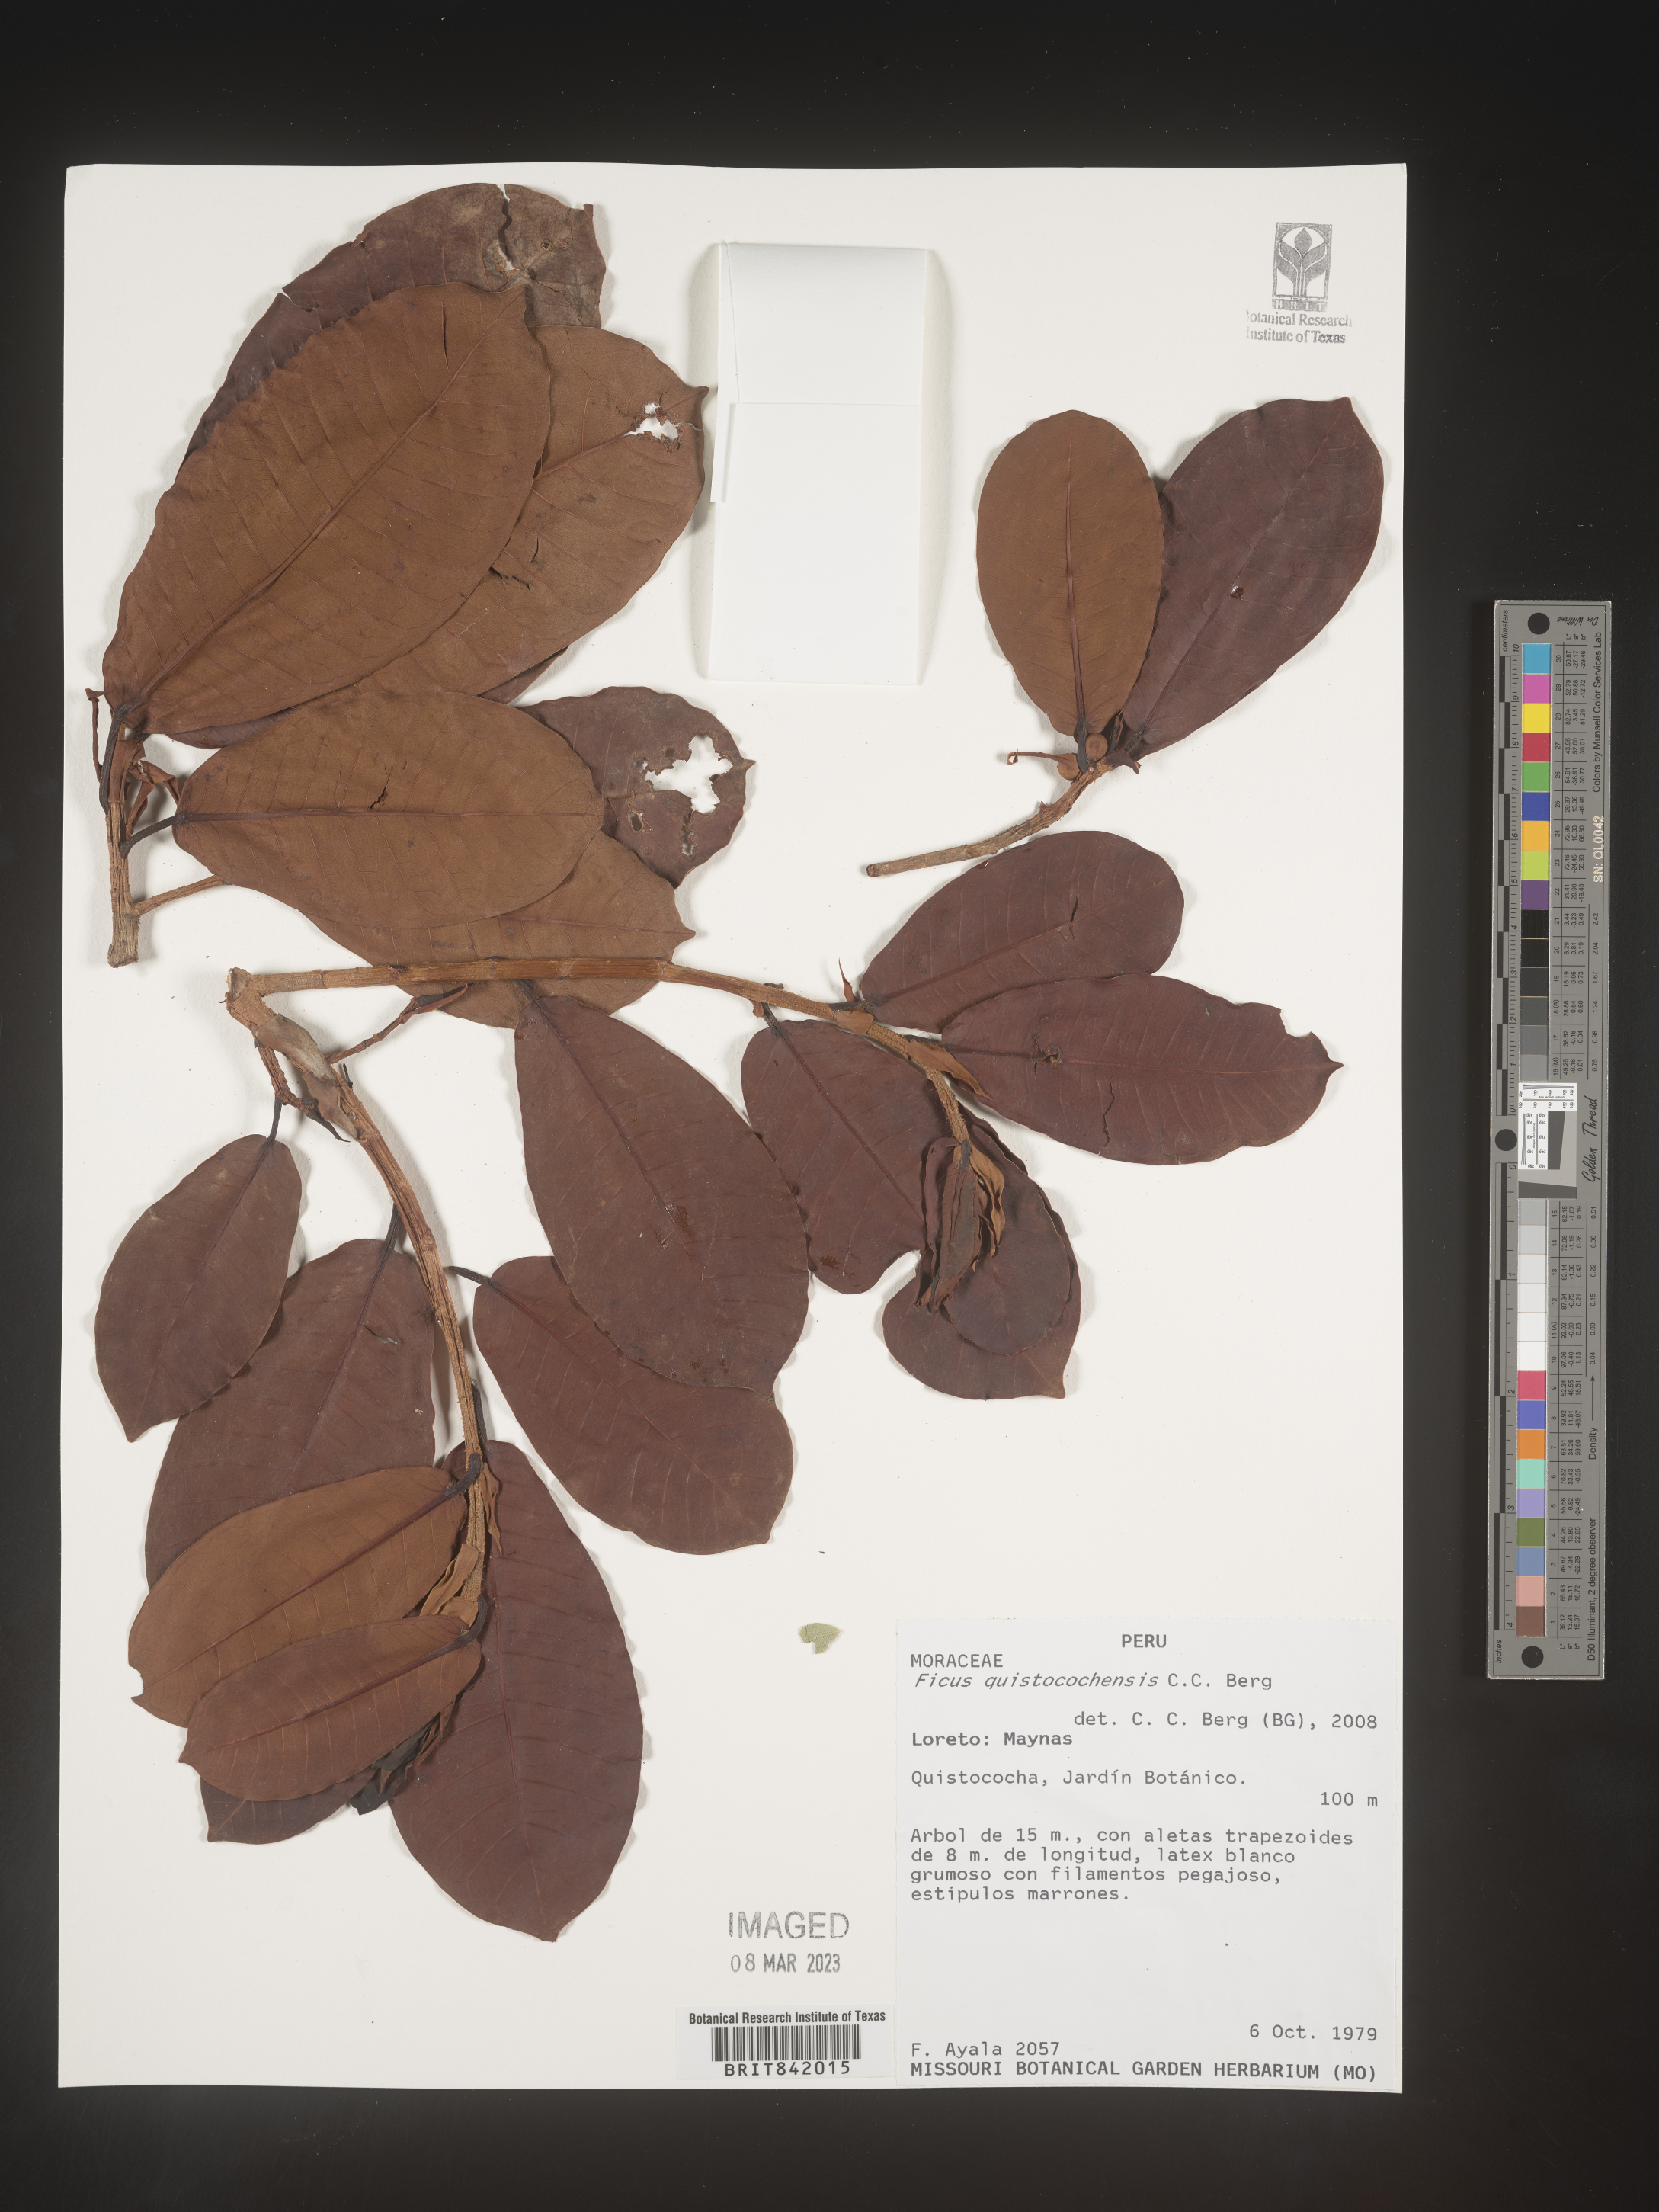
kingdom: Plantae
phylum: Tracheophyta
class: Magnoliopsida
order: Rosales
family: Moraceae
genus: Ficus
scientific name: Ficus quistocochensis
